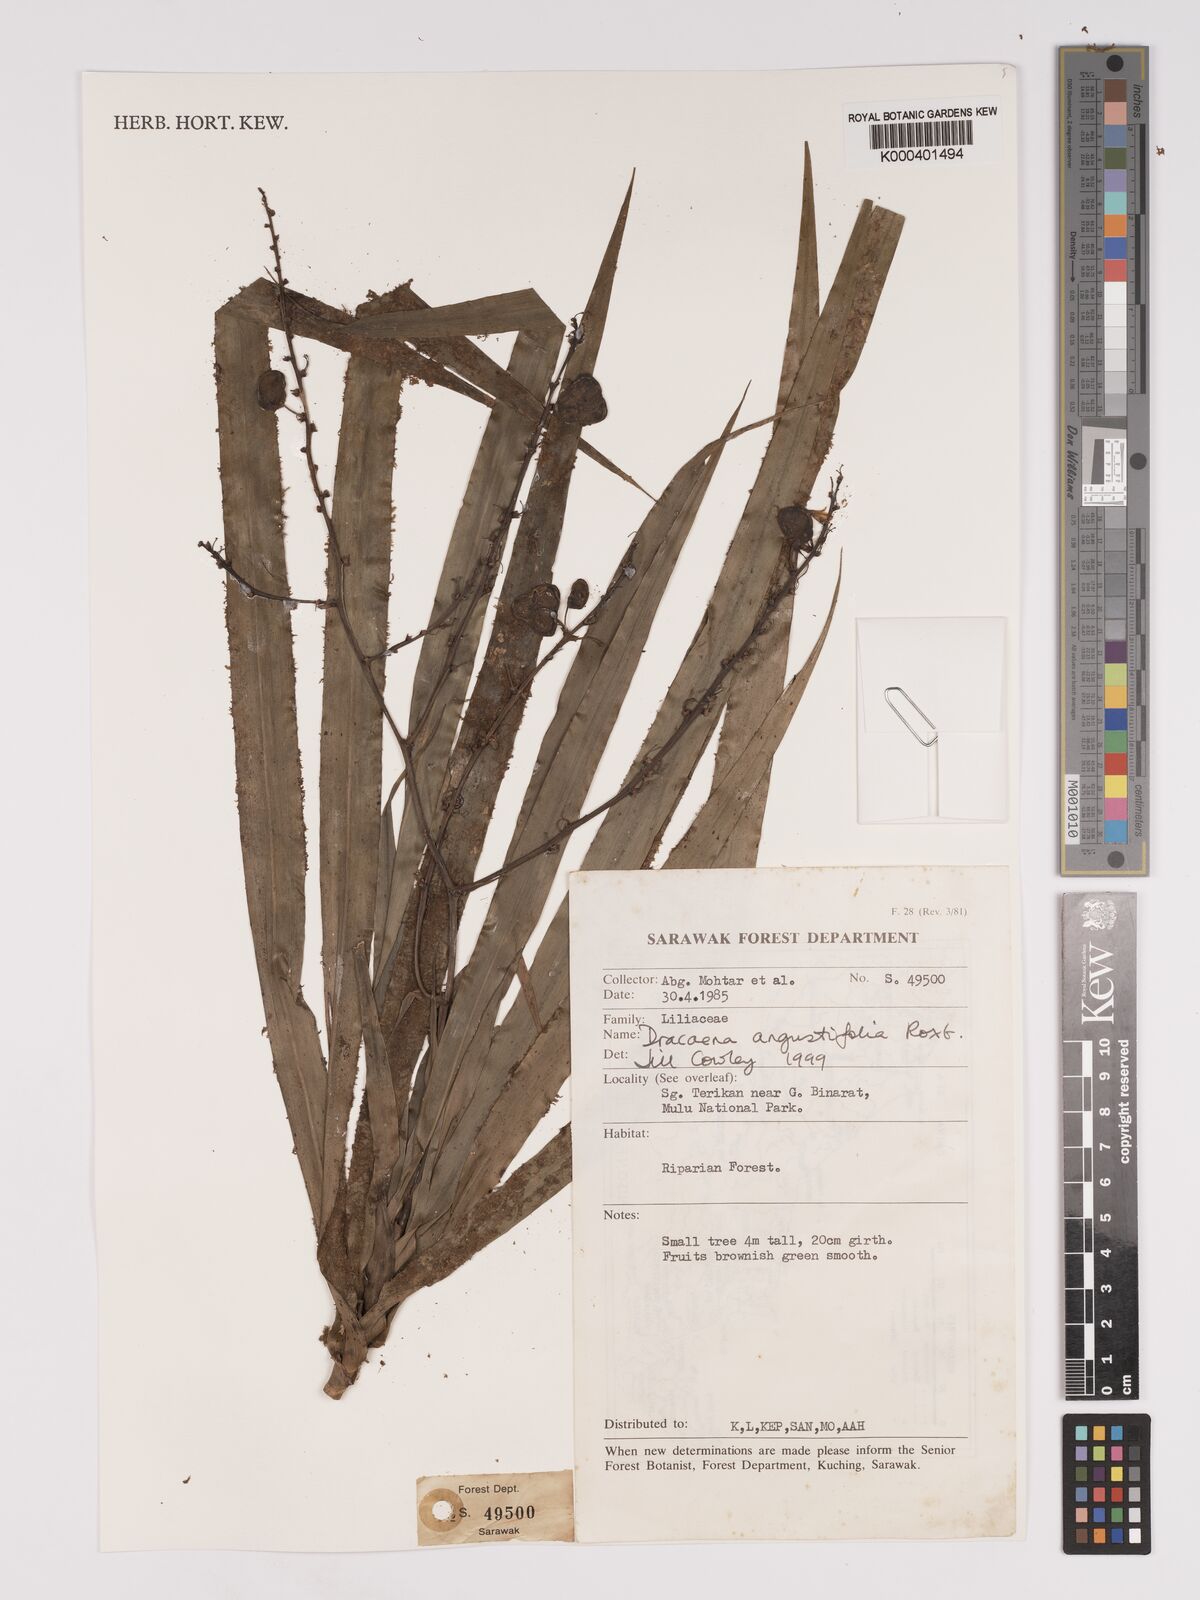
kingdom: Plantae
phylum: Tracheophyta
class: Liliopsida
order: Asparagales
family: Asparagaceae
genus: Dracaena
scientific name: Dracaena angustifolia
